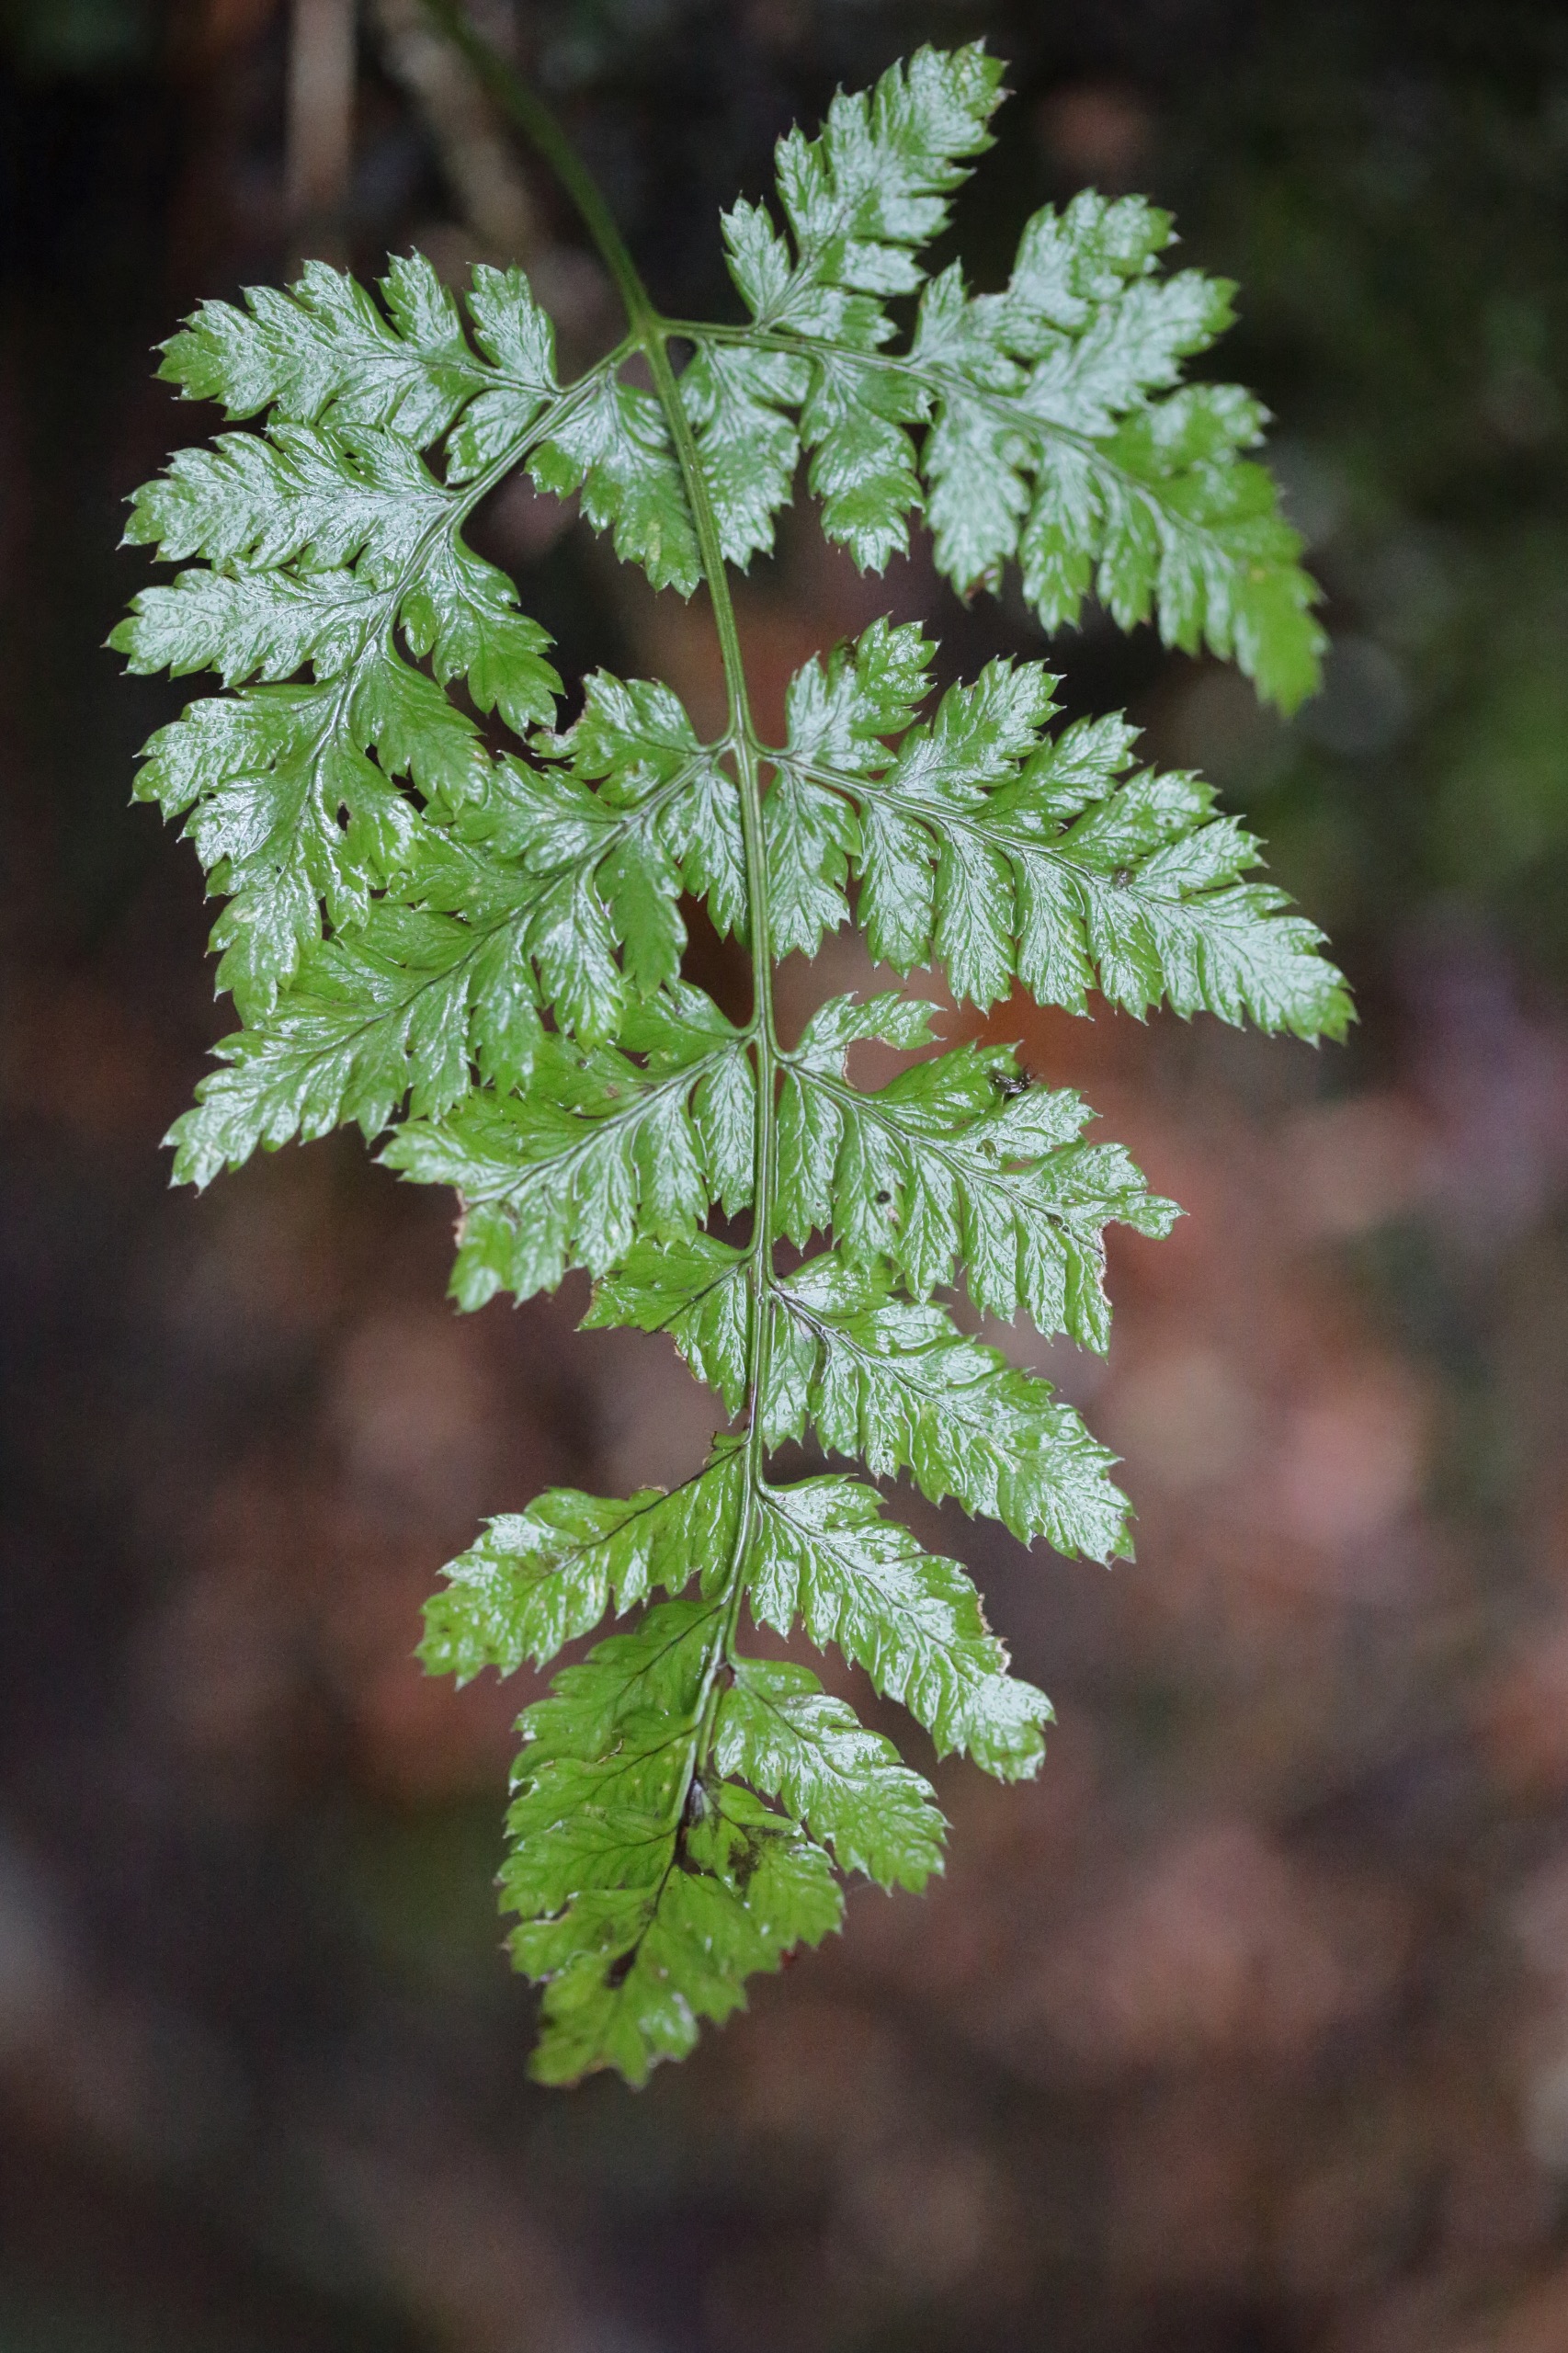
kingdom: Plantae
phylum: Tracheophyta
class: Polypodiopsida
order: Polypodiales
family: Dryopteridaceae
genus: Dryopteris
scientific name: Dryopteris
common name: Mangeløv (Dryopteris-slægten)
